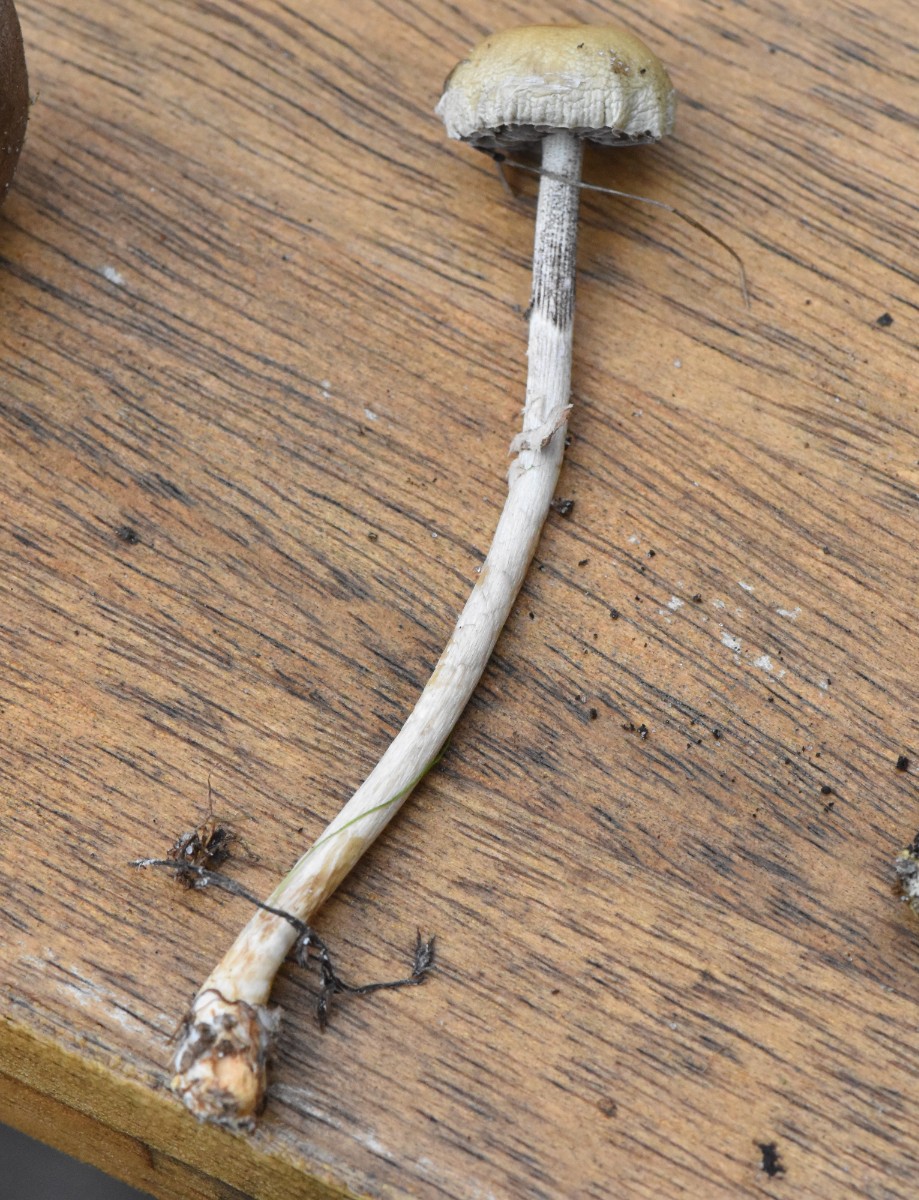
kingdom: Fungi
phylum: Basidiomycota
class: Agaricomycetes
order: Agaricales
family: Strophariaceae
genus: Protostropharia
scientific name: Protostropharia semiglobata
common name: halvkugleformet bredblad
